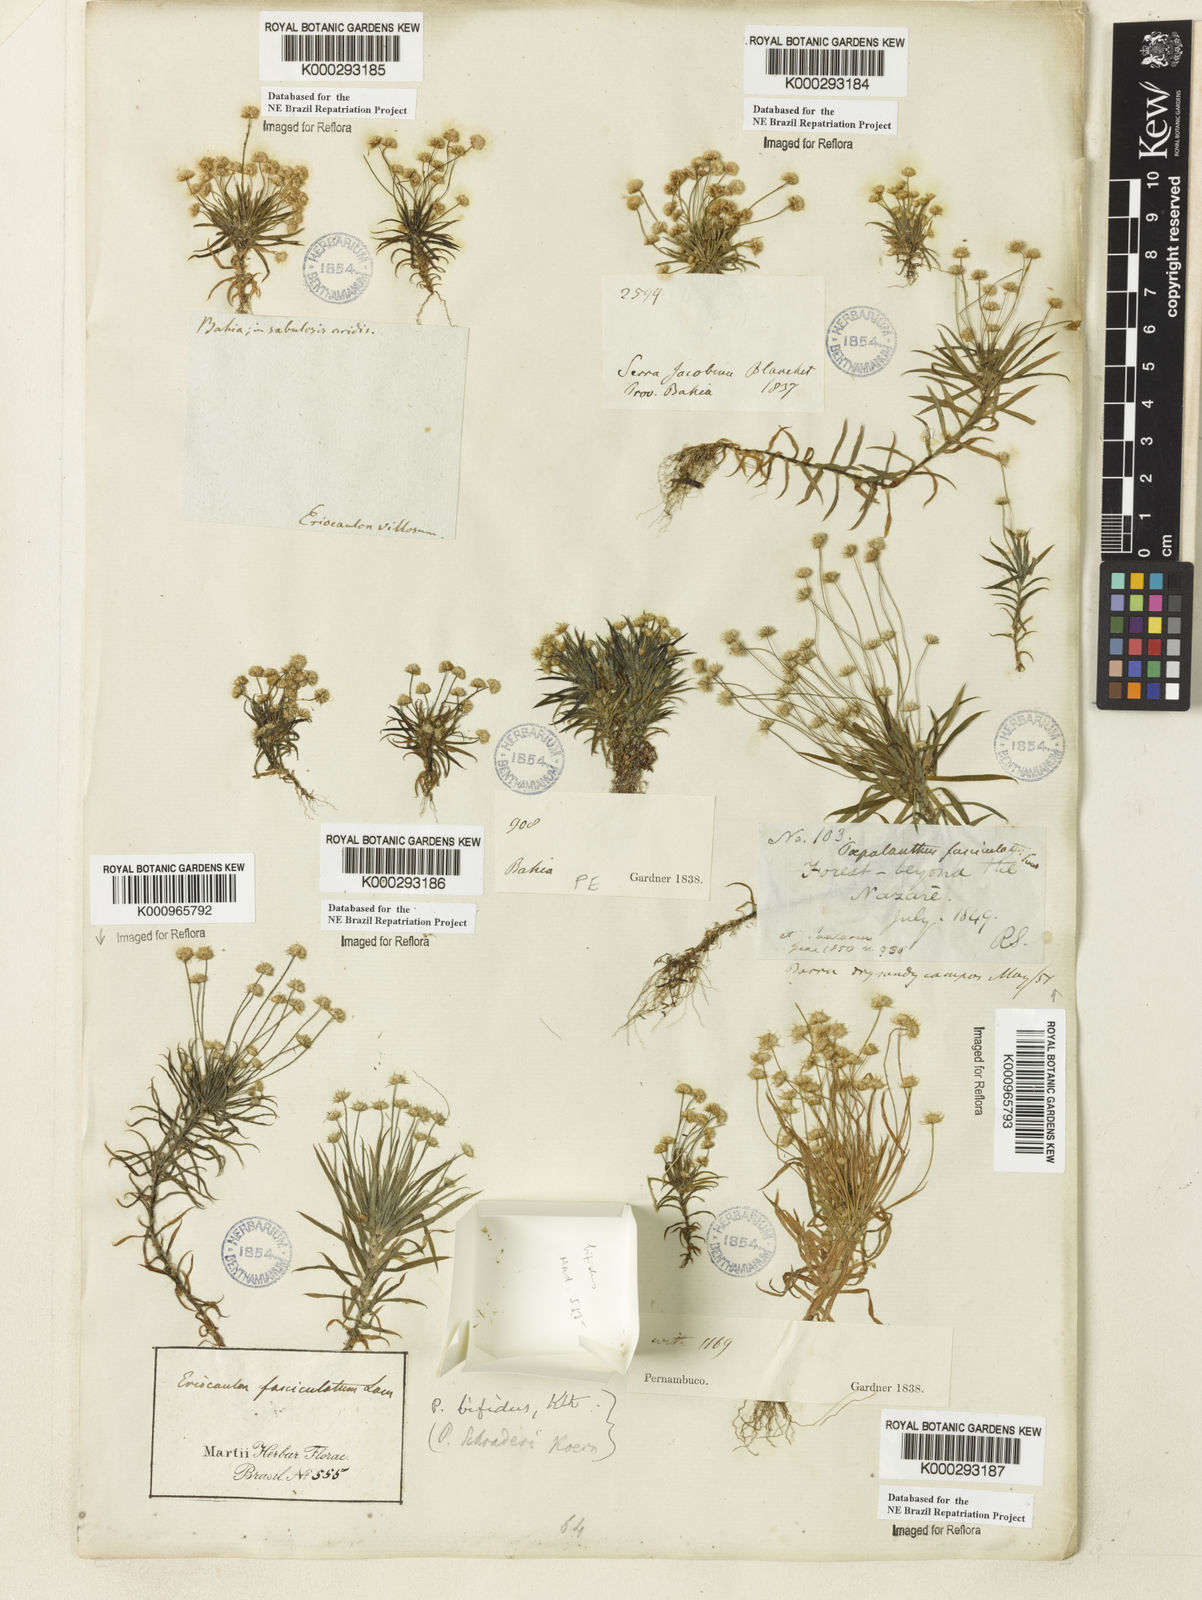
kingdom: Plantae
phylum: Tracheophyta
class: Liliopsida
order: Poales
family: Eriocaulaceae
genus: Paepalanthus
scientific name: Paepalanthus bifidus
